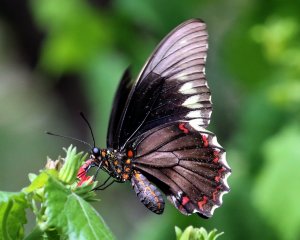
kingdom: Animalia
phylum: Arthropoda
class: Insecta
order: Lepidoptera
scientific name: Lepidoptera
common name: Butterflies
